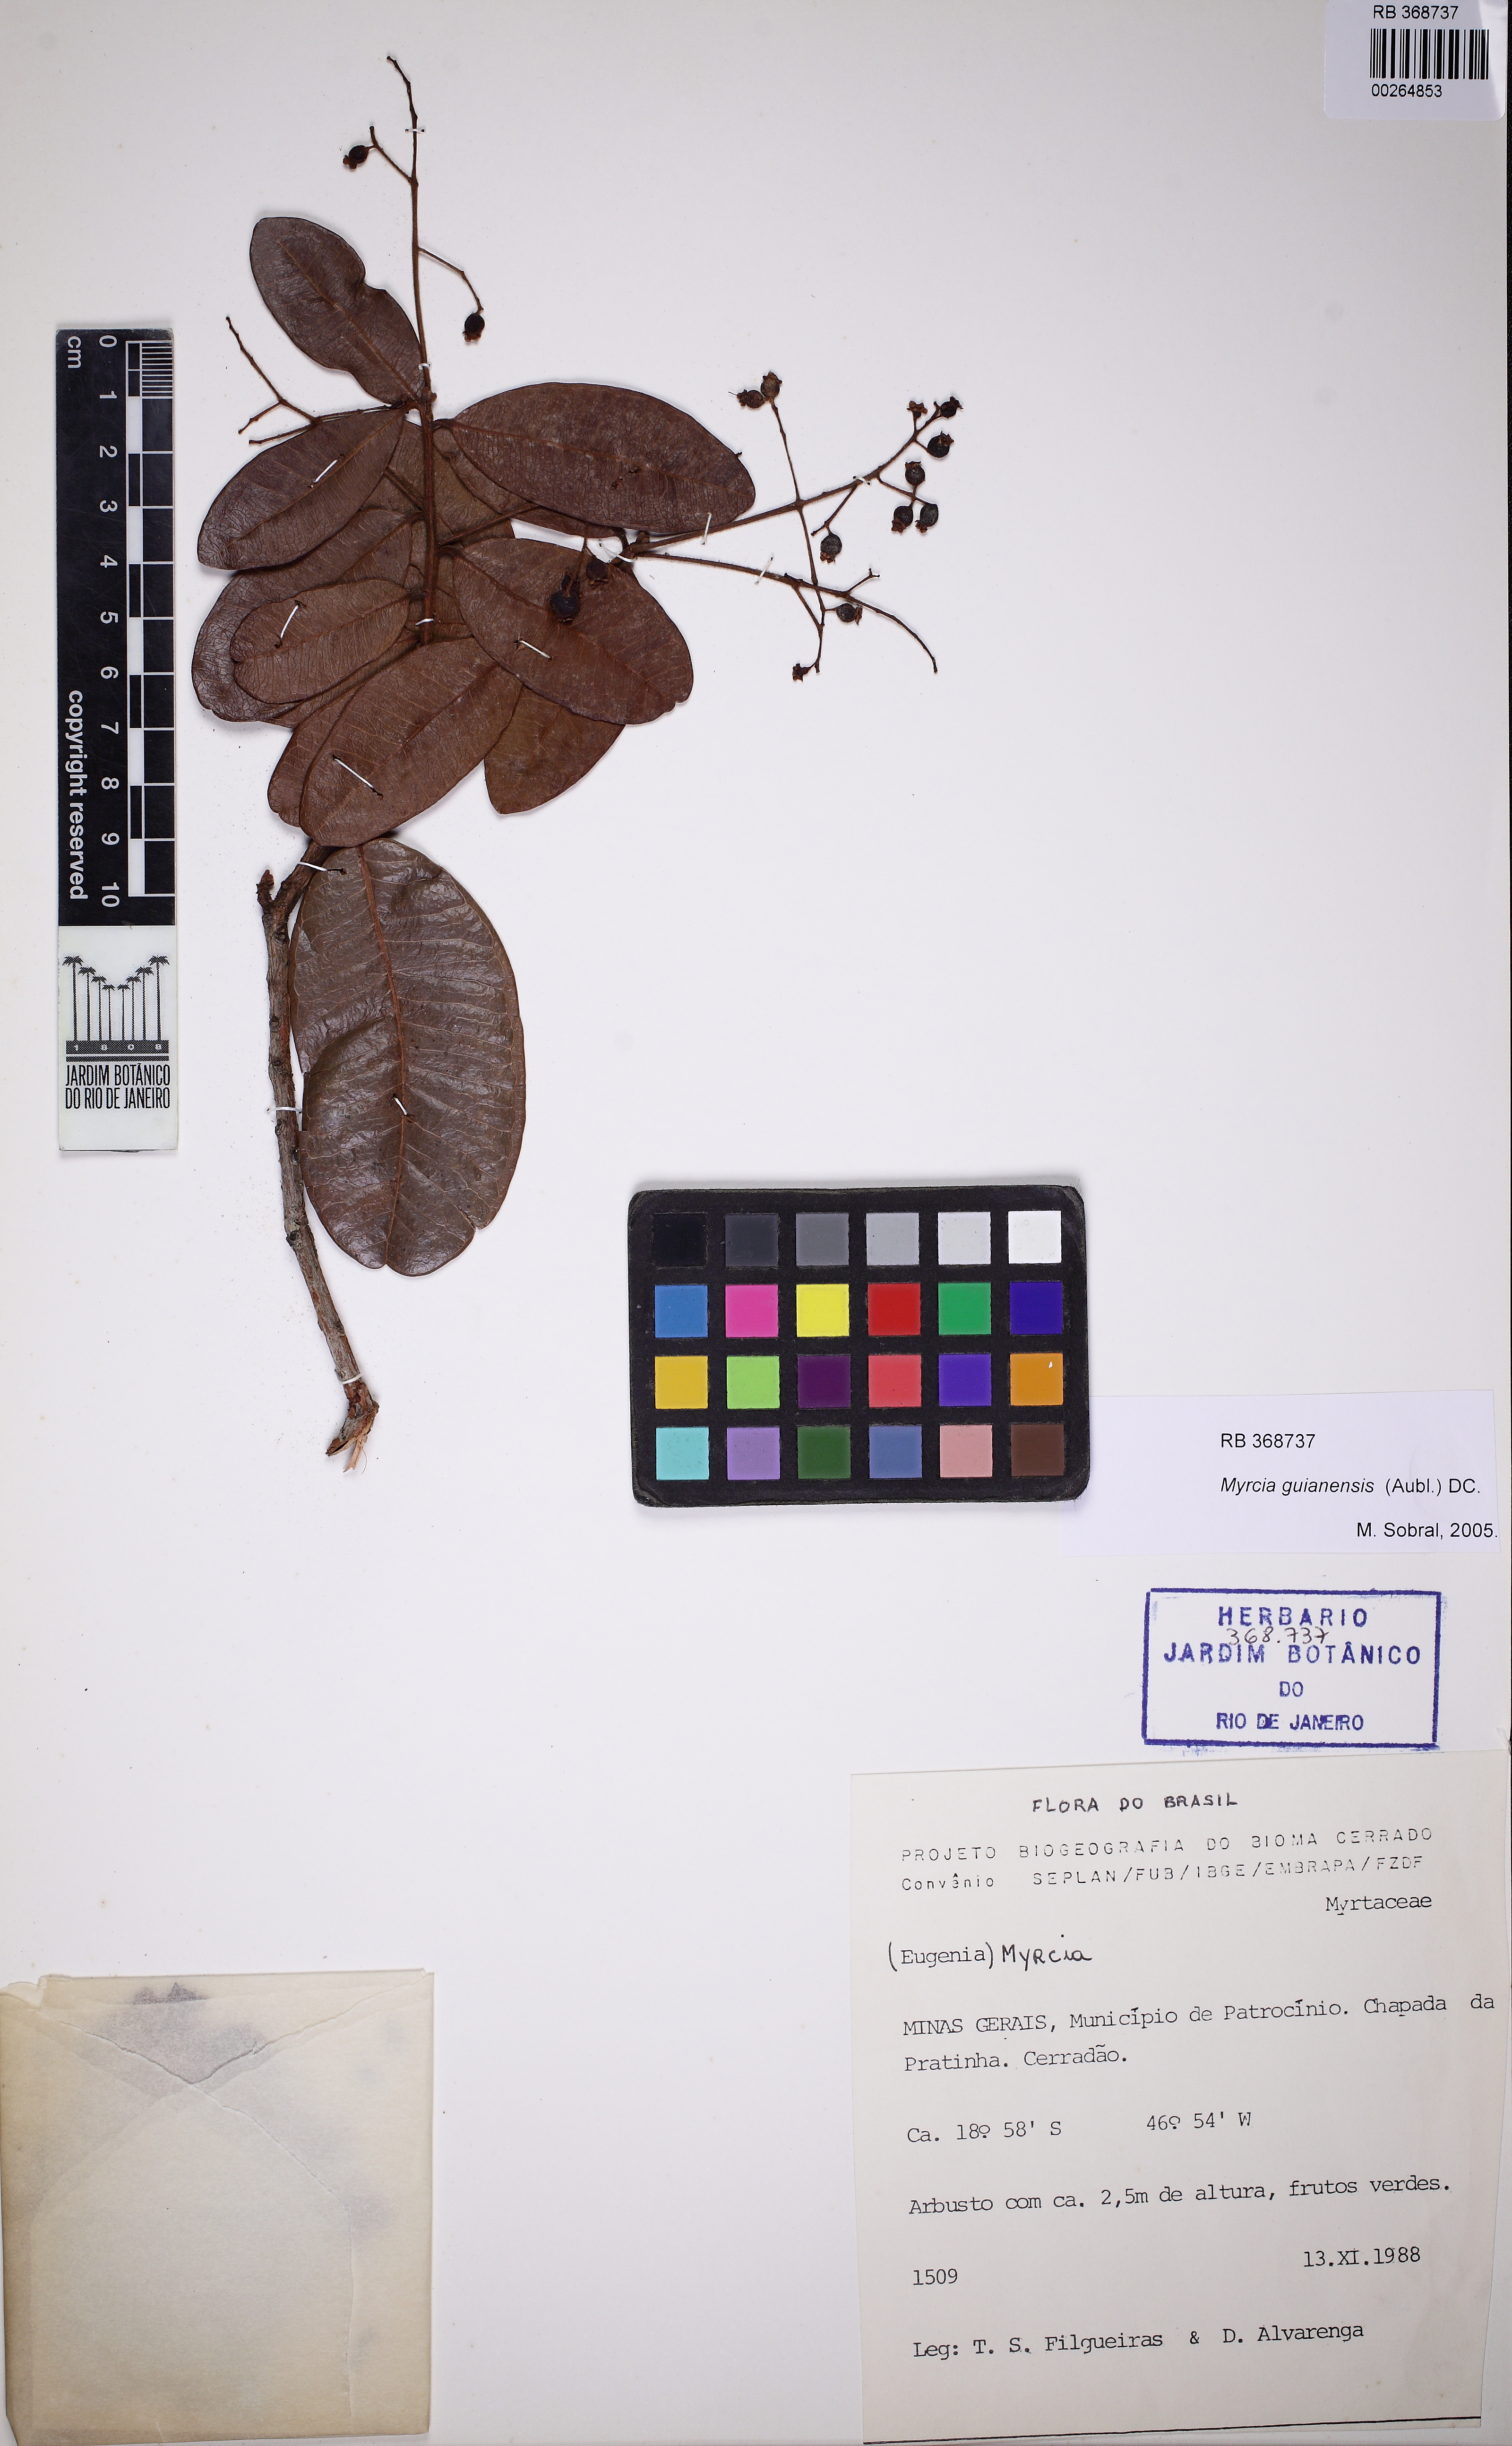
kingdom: Plantae
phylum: Tracheophyta
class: Magnoliopsida
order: Myrtales
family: Myrtaceae
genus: Myrcia
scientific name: Myrcia guianensis
